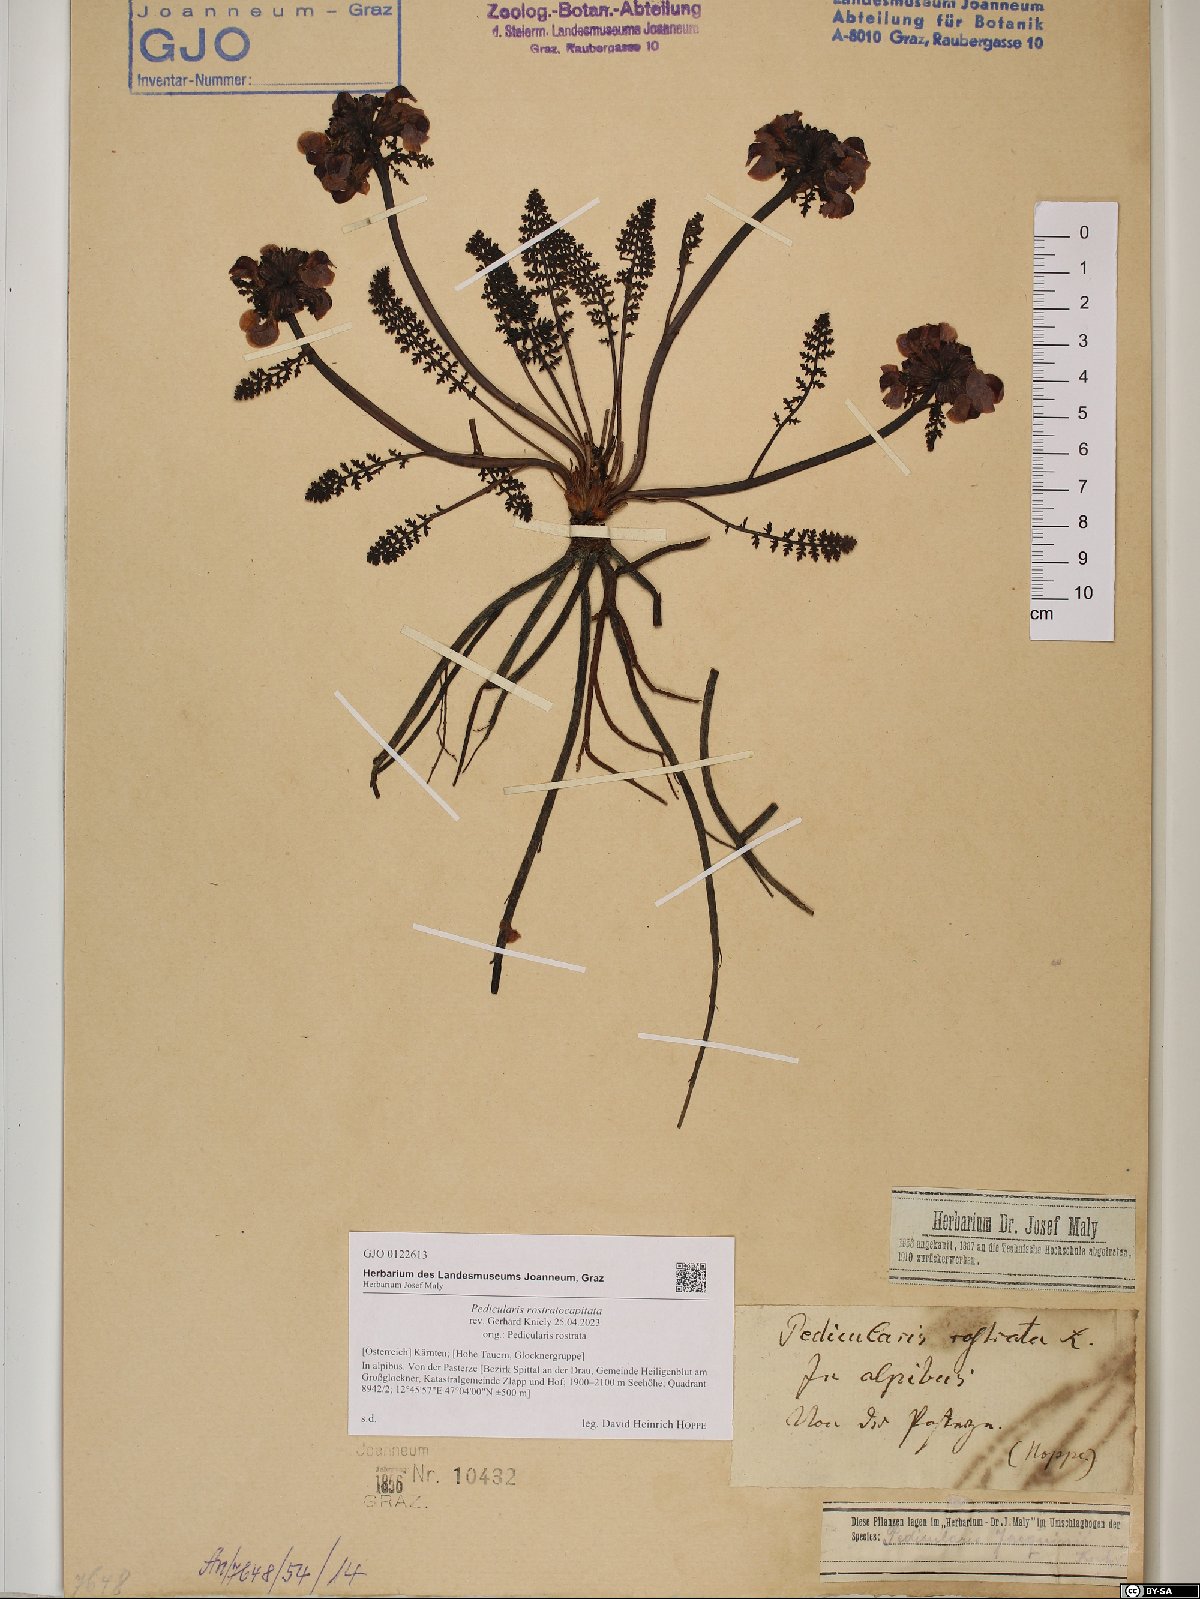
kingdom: Plantae
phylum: Tracheophyta
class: Magnoliopsida
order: Lamiales
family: Orobanchaceae
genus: Pedicularis
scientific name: Pedicularis rostratocapitata
